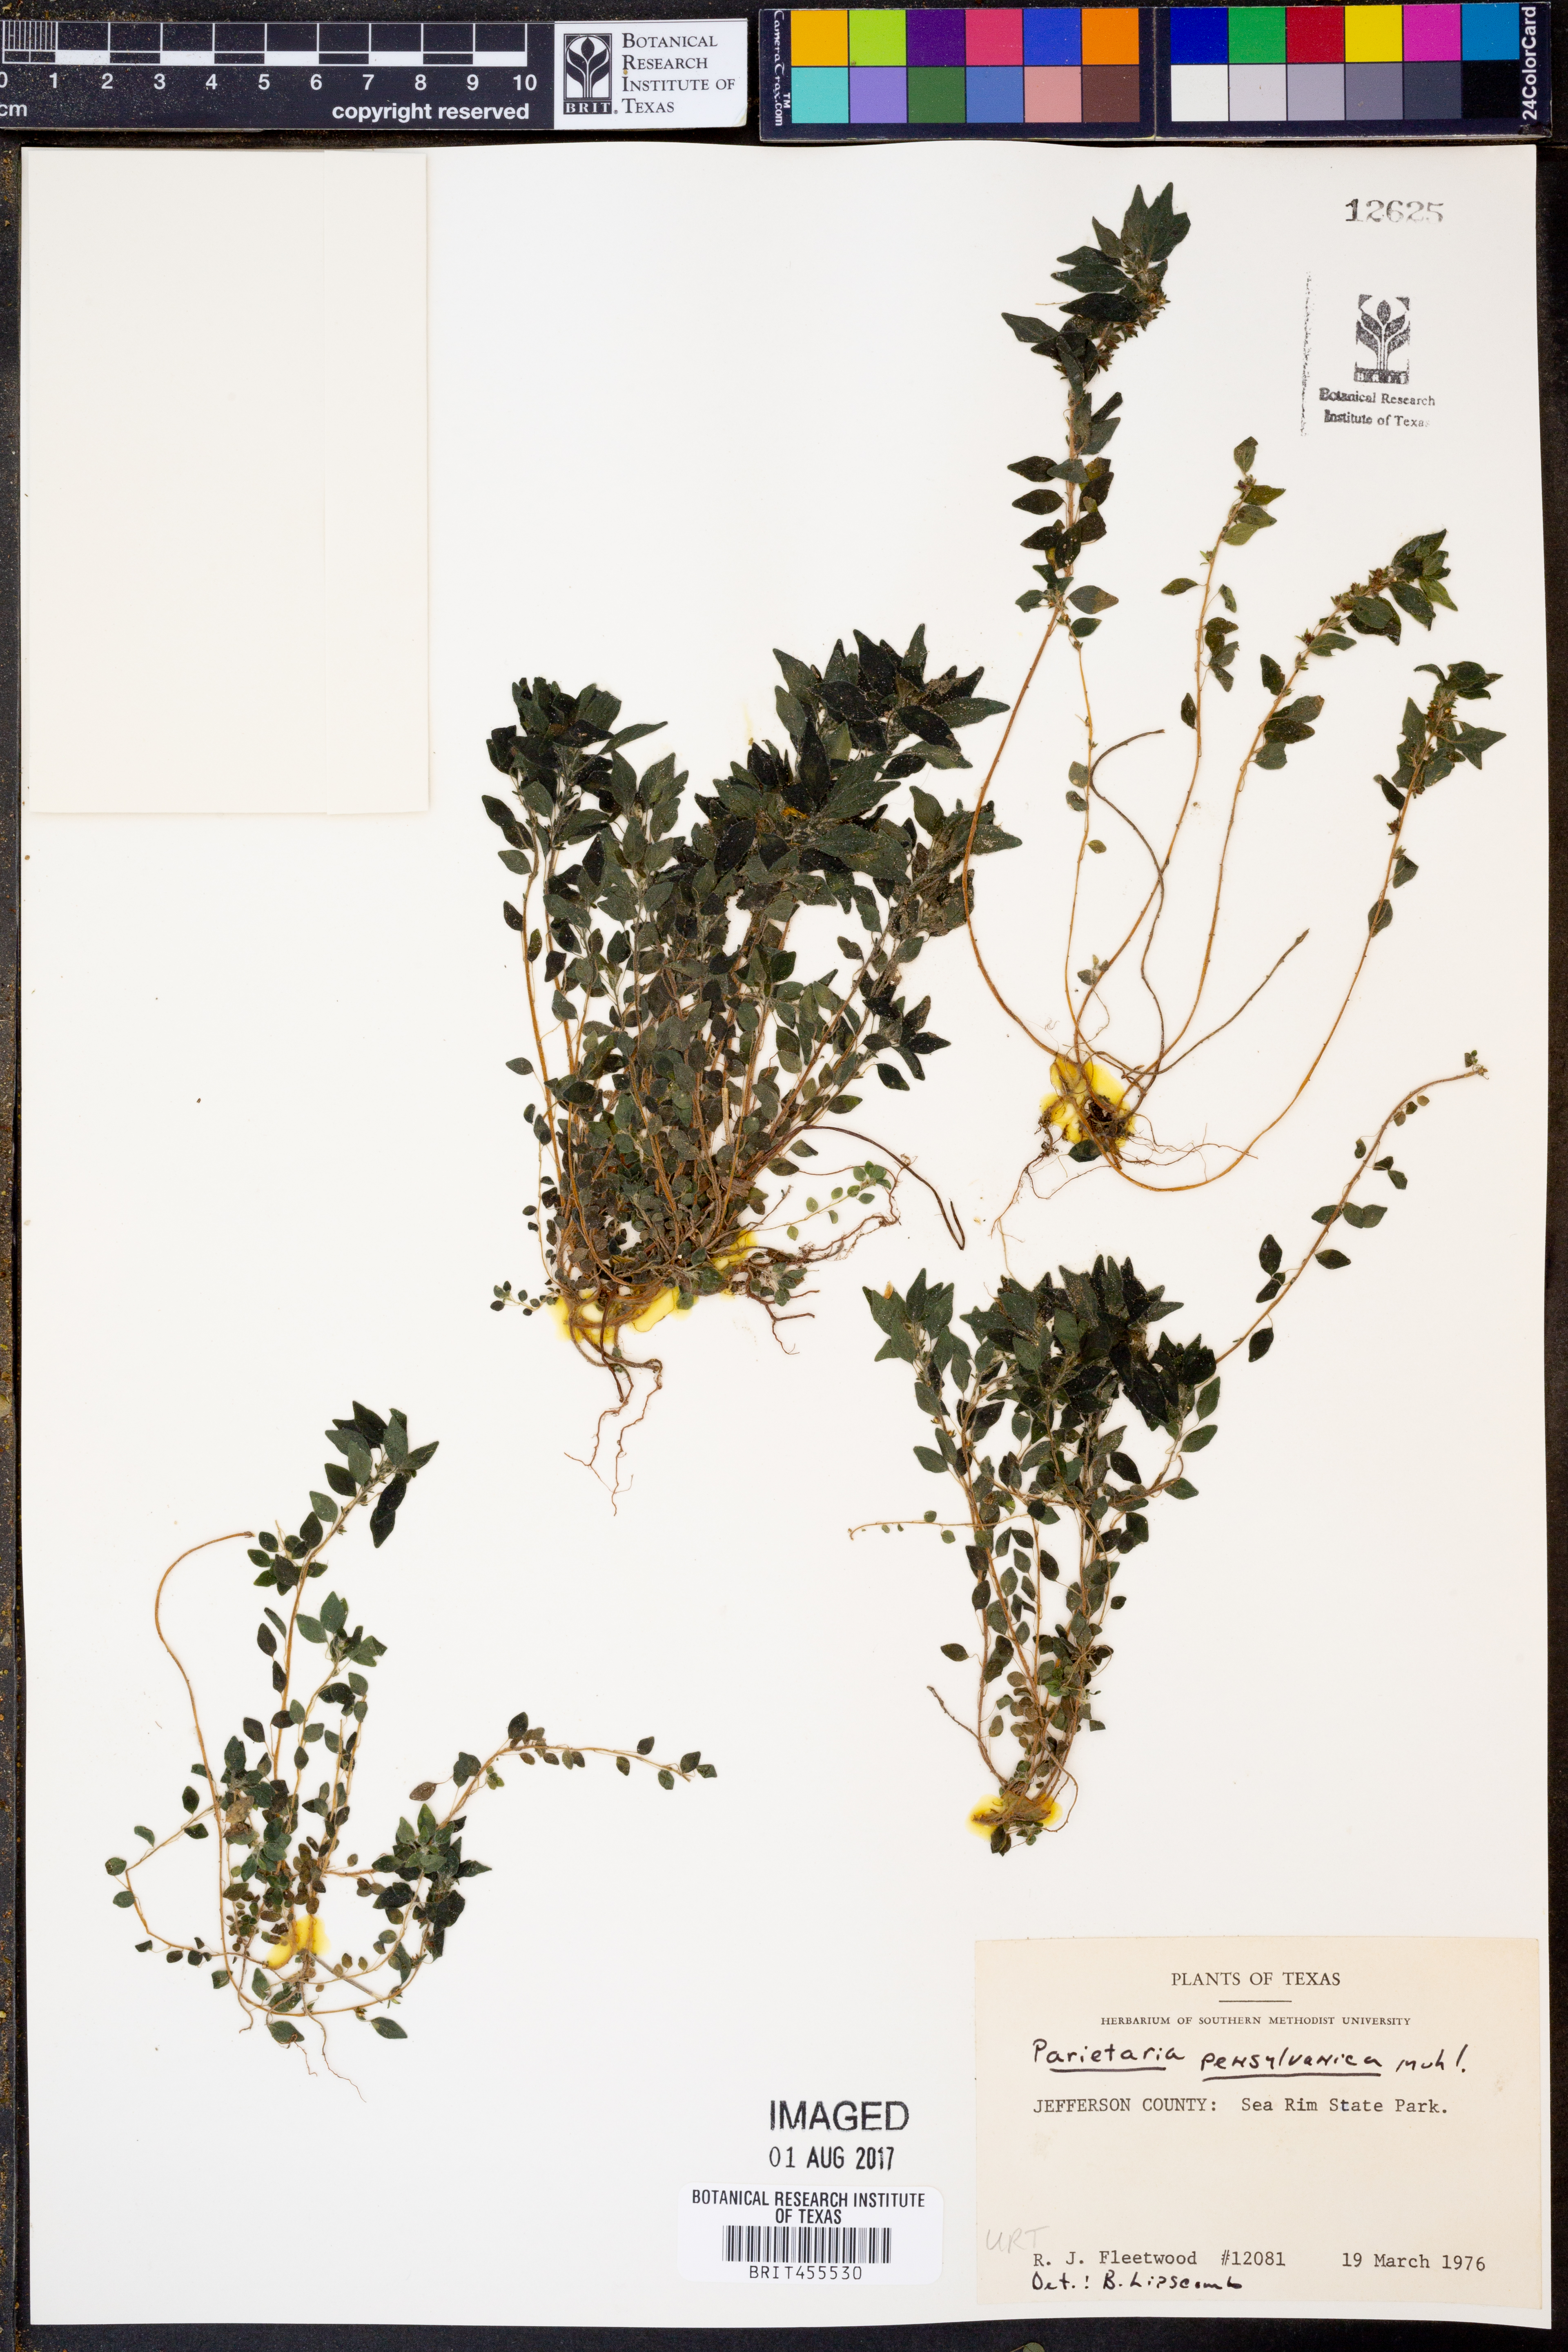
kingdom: Plantae
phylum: Tracheophyta
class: Magnoliopsida
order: Rosales
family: Urticaceae
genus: Parietaria
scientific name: Parietaria pensylvanica
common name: Pennsylvania pellitory
